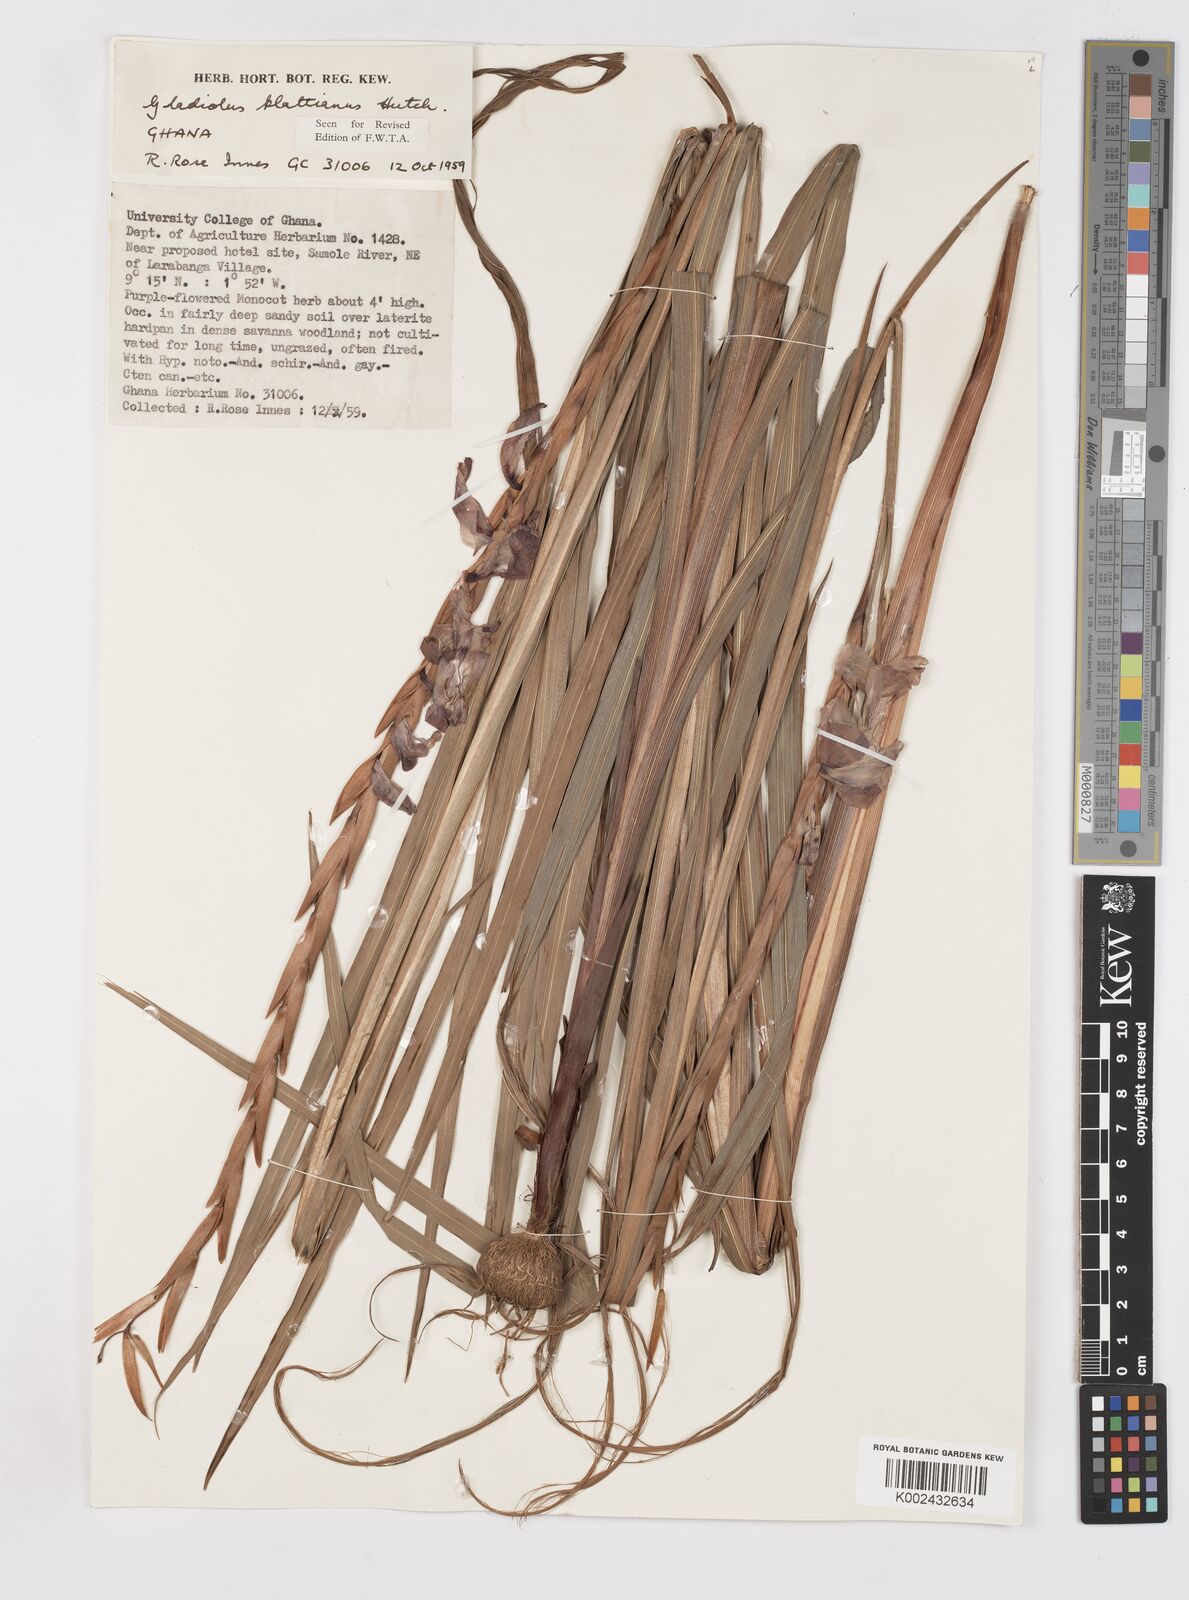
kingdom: Plantae
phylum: Tracheophyta
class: Liliopsida
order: Asparagales
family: Iridaceae
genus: Gladiolus
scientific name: Gladiolus gregarius
